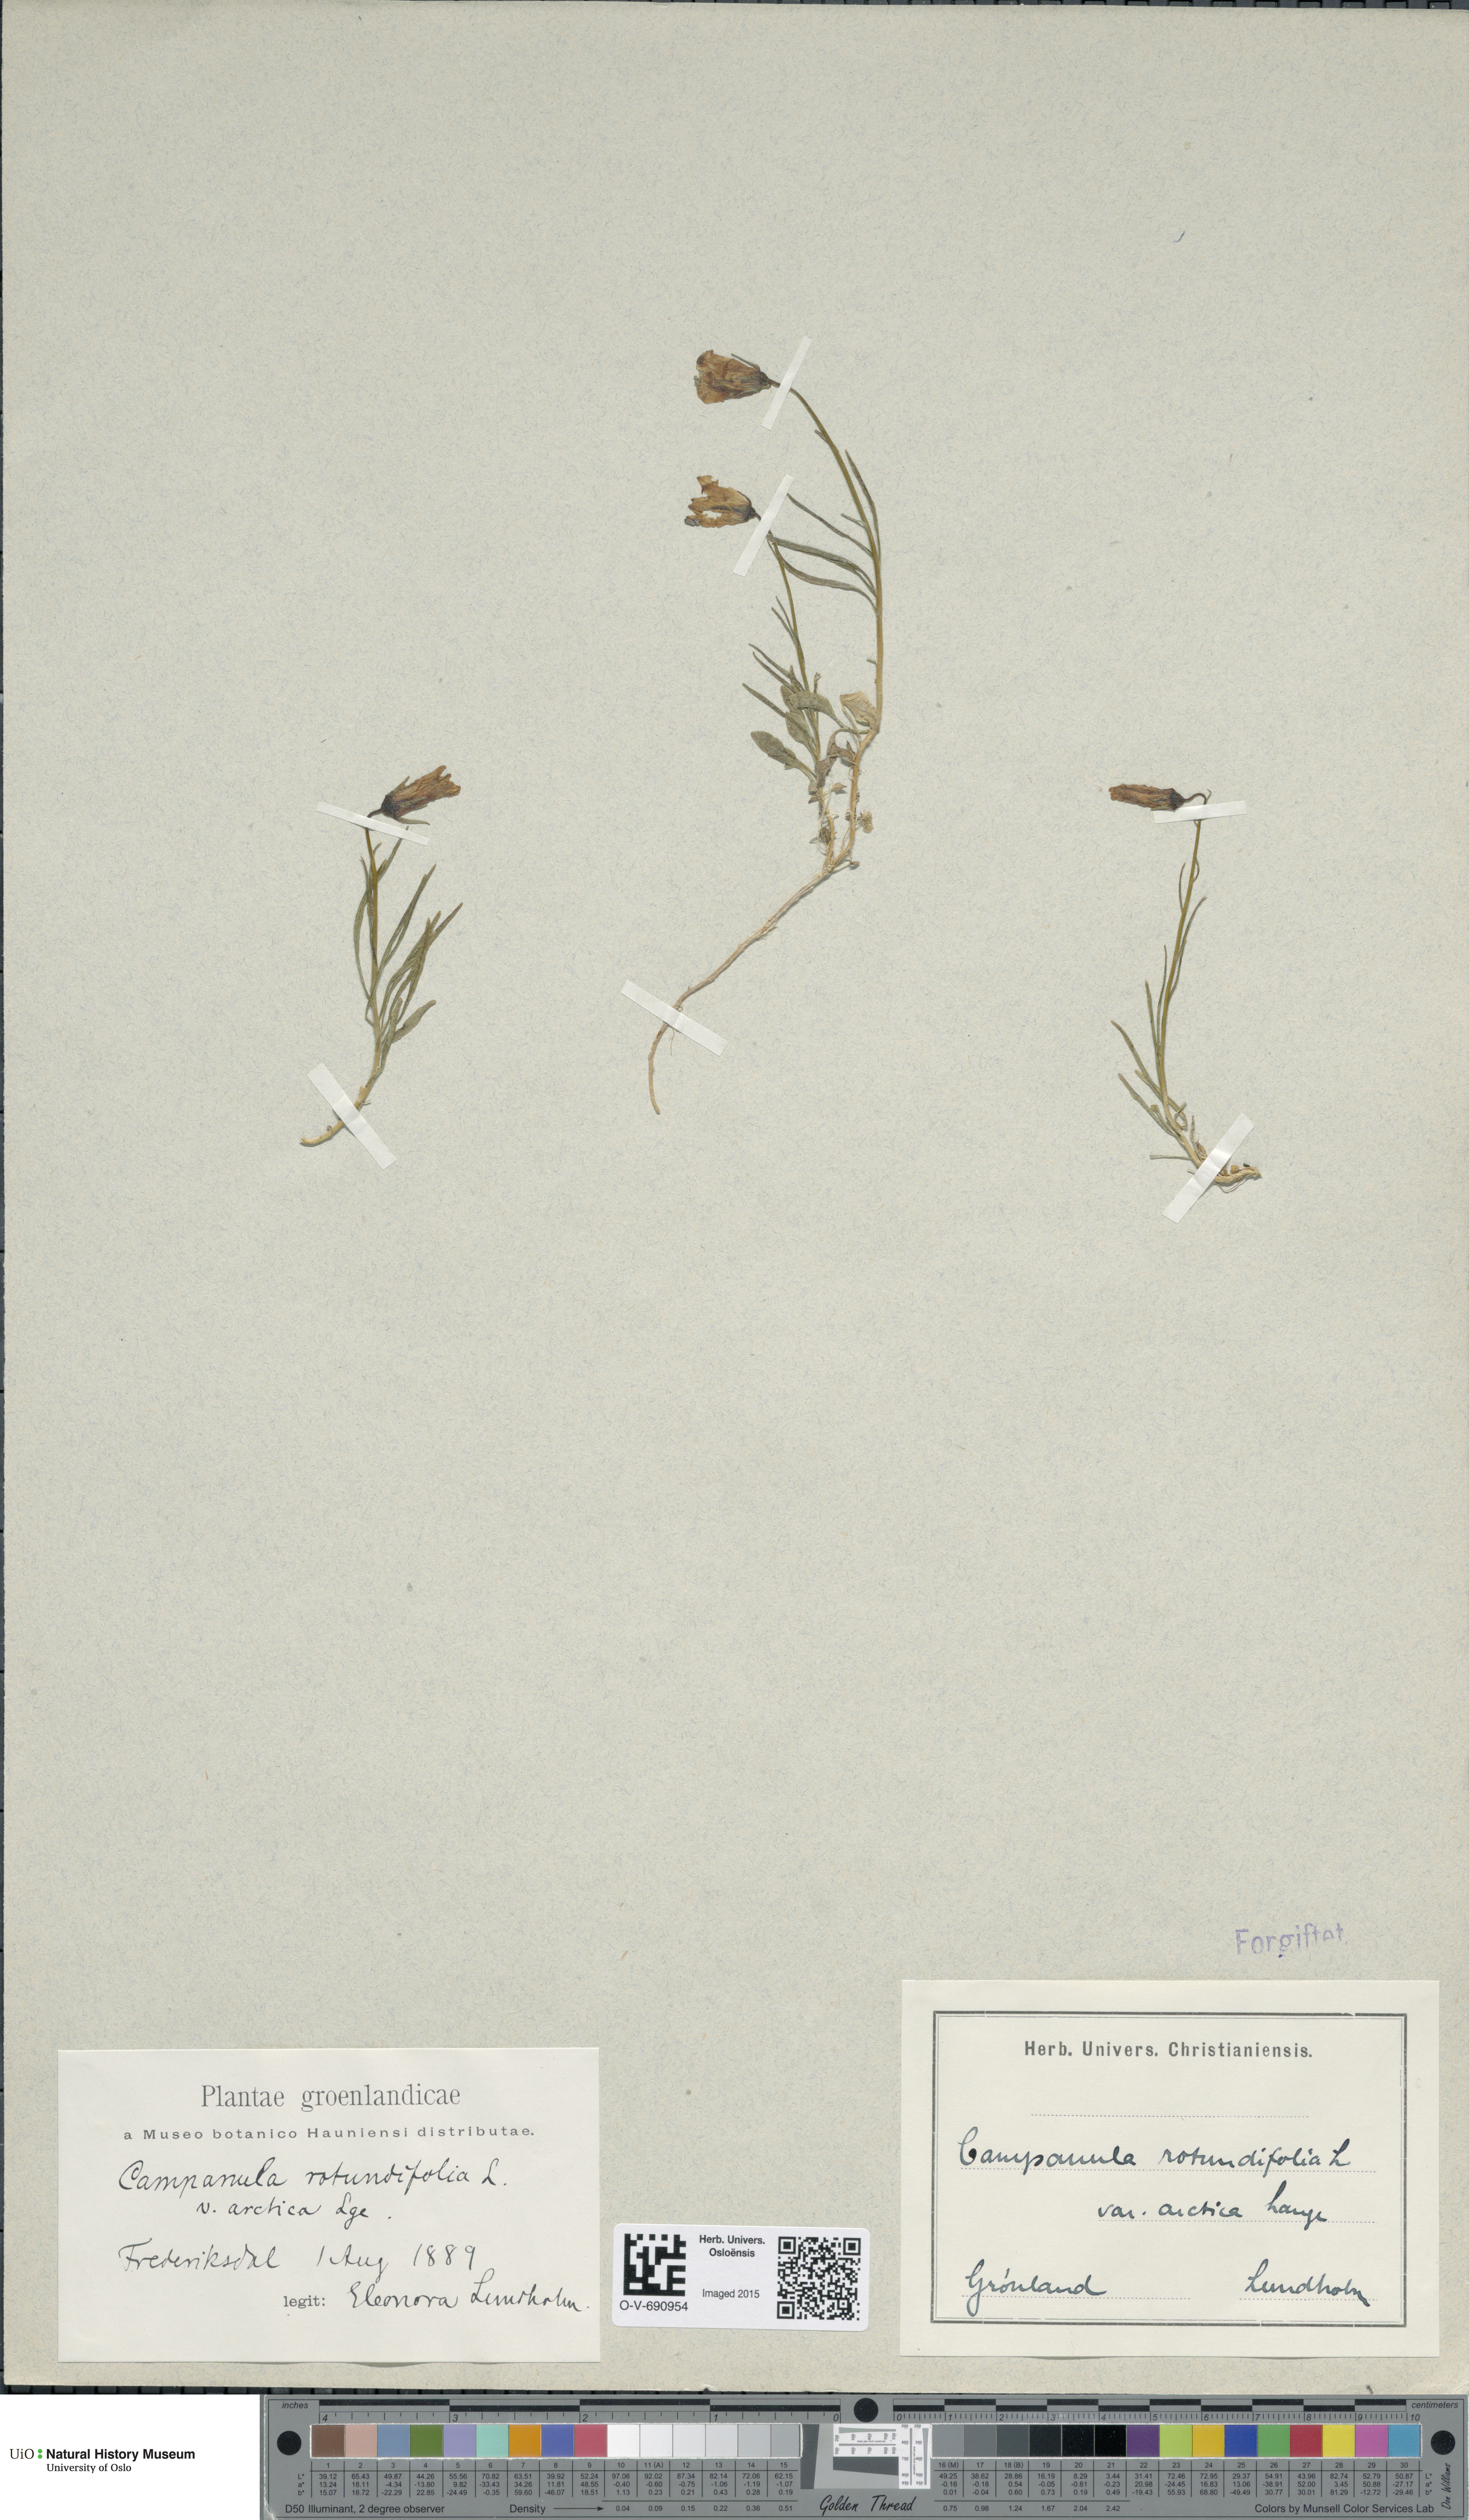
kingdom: Plantae
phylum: Tracheophyta
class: Magnoliopsida
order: Asterales
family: Campanulaceae
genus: Campanula
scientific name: Campanula rotundifolia
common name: Harebell
